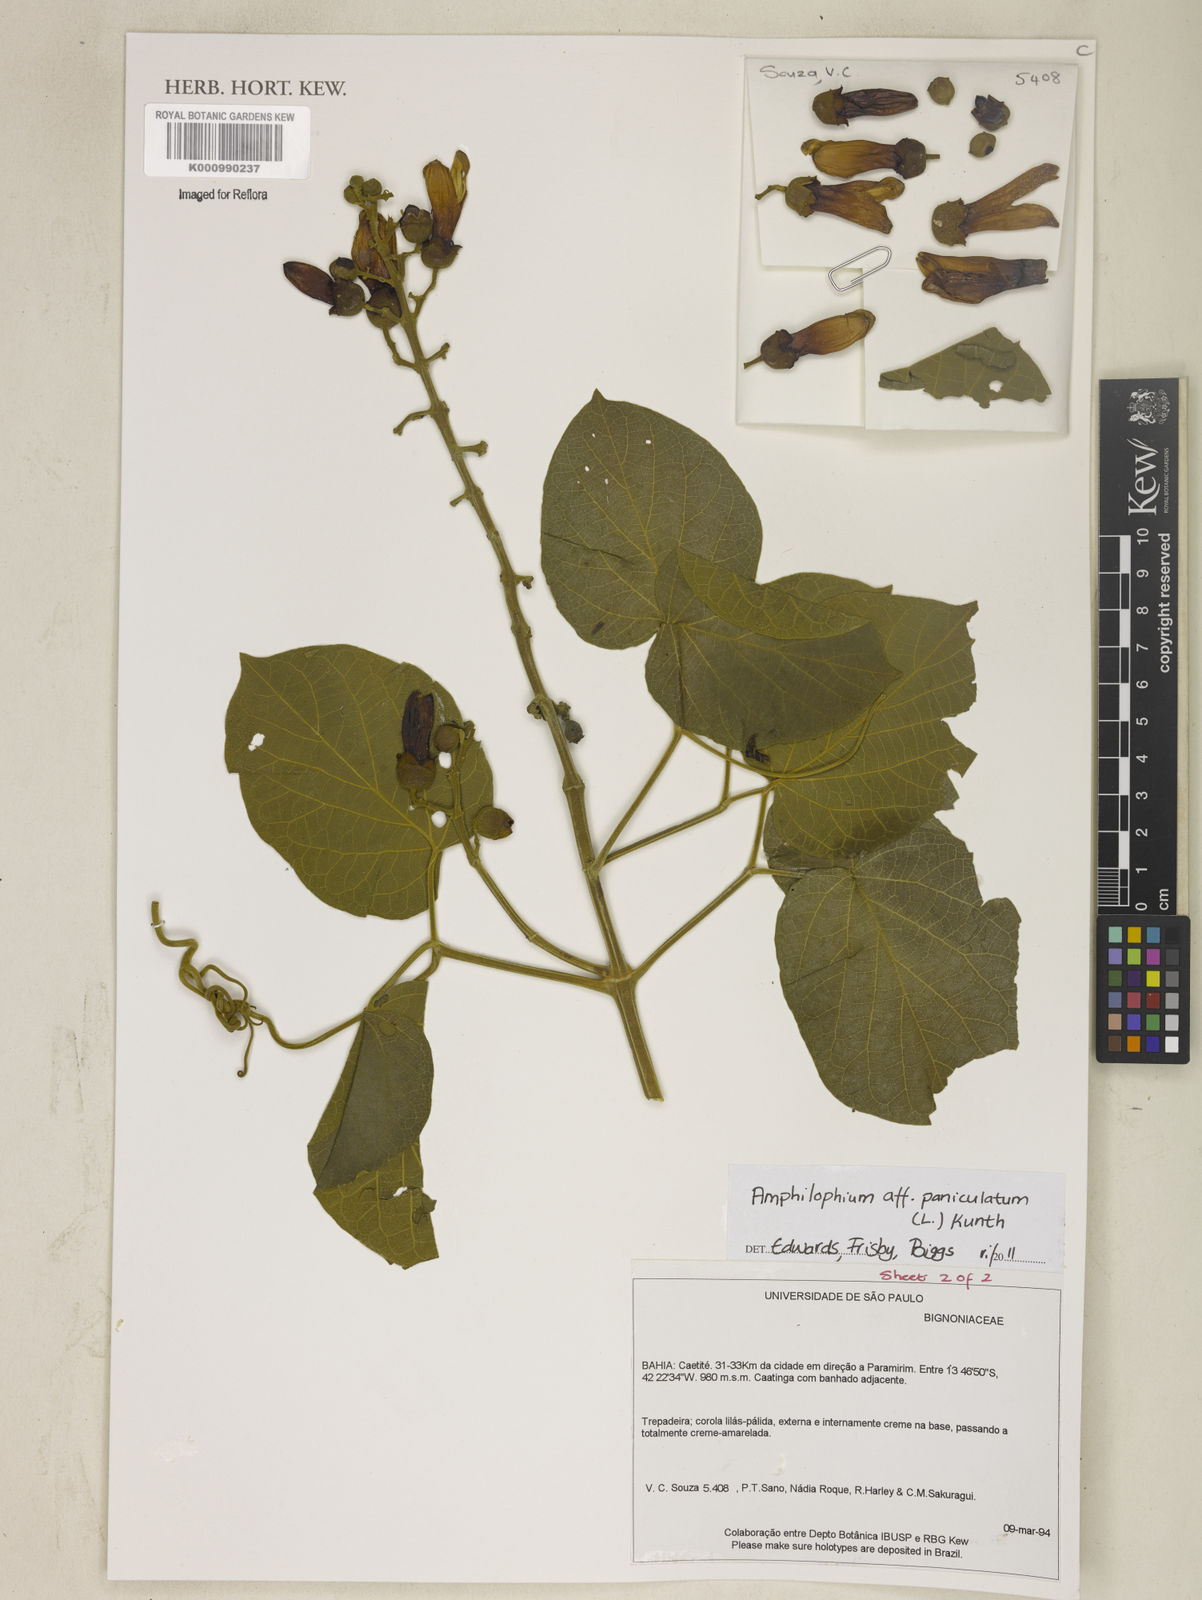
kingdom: Plantae
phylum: Tracheophyta
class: Magnoliopsida
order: Lamiales
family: Bignoniaceae
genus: Amphilophium
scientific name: Amphilophium paniculatum
